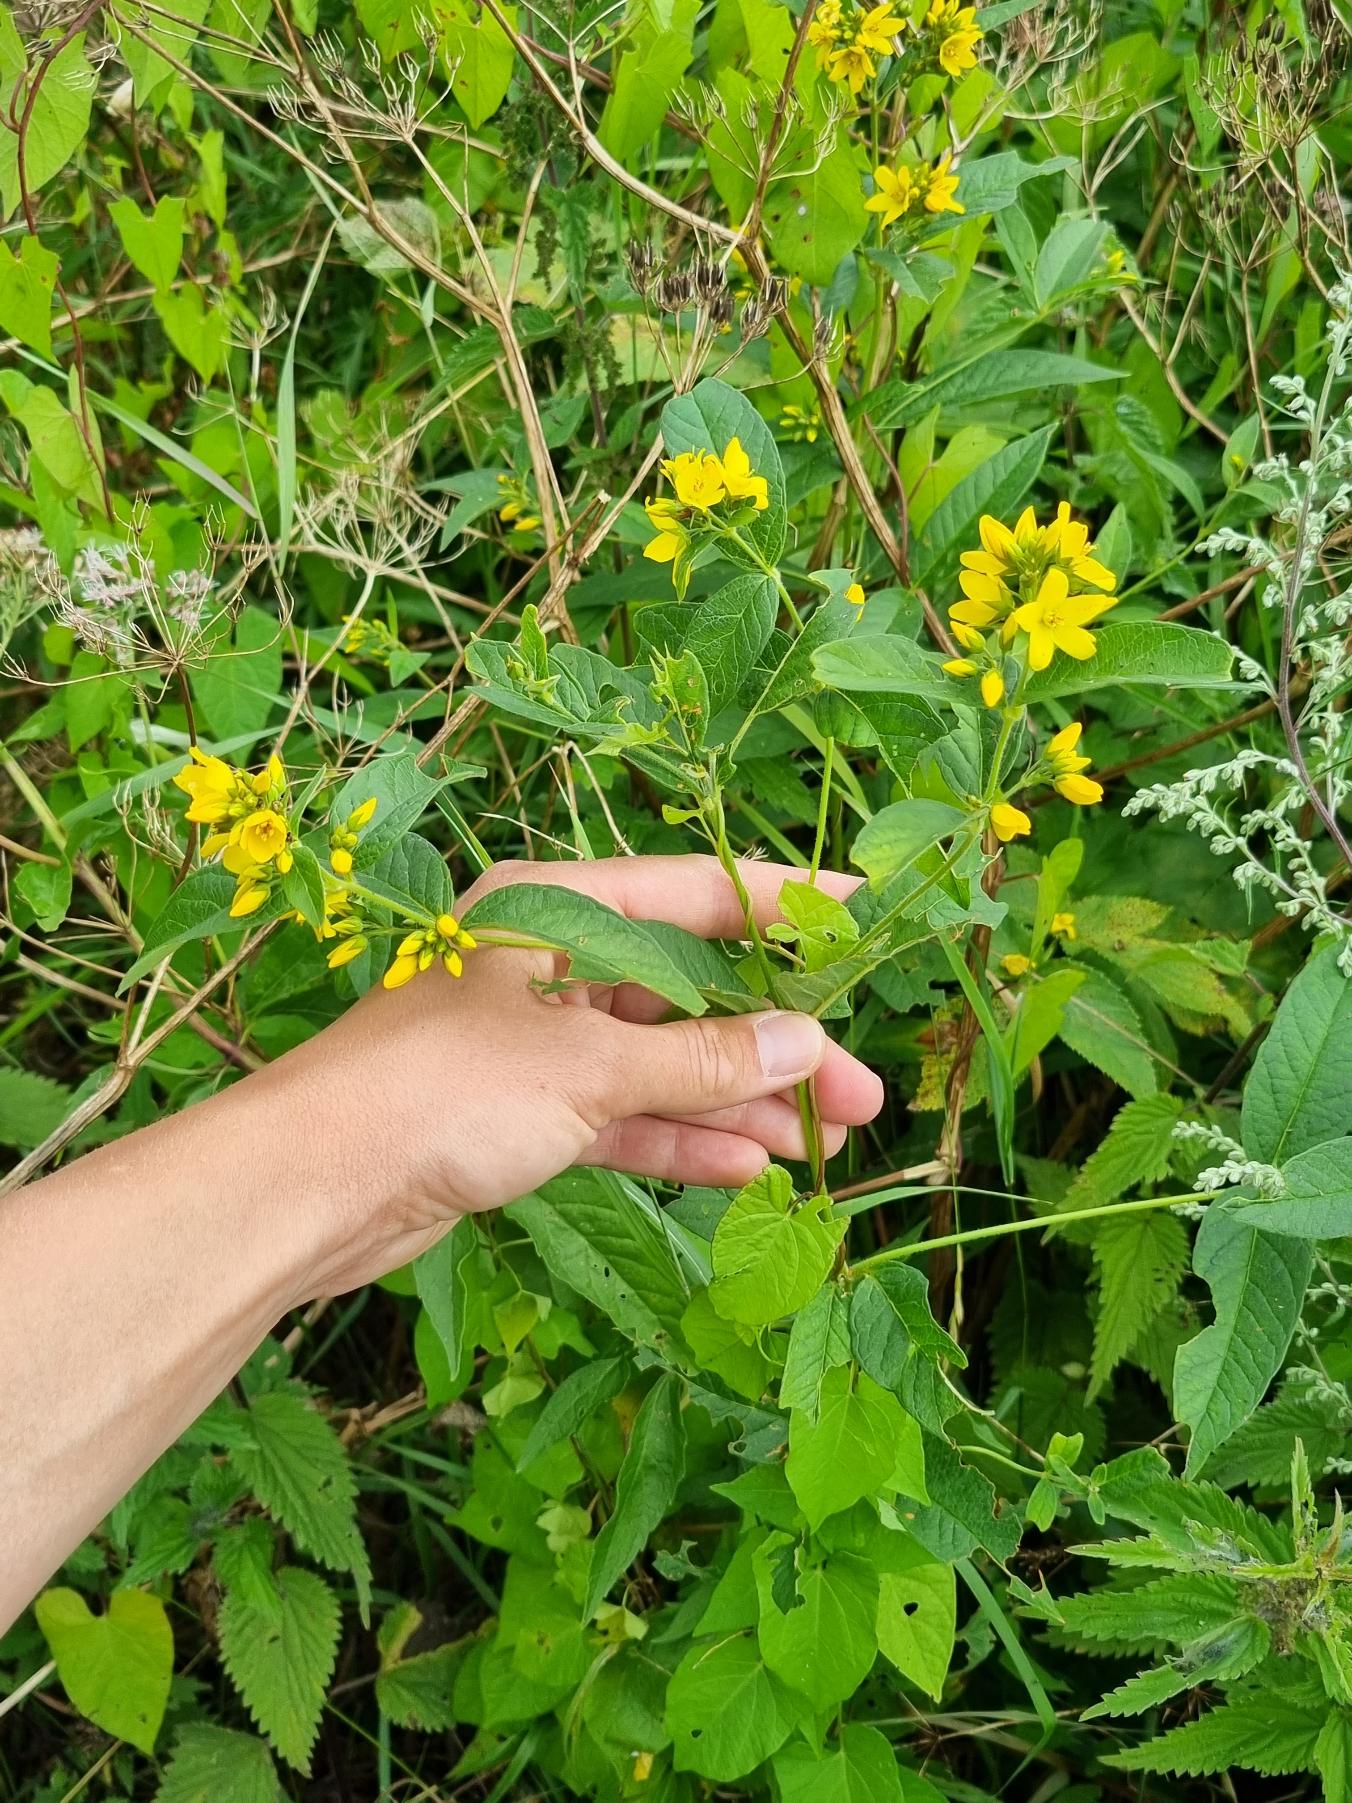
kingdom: Plantae
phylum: Tracheophyta
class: Magnoliopsida
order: Ericales
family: Primulaceae
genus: Lysimachia
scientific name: Lysimachia vulgaris
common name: Almindelig fredløs
